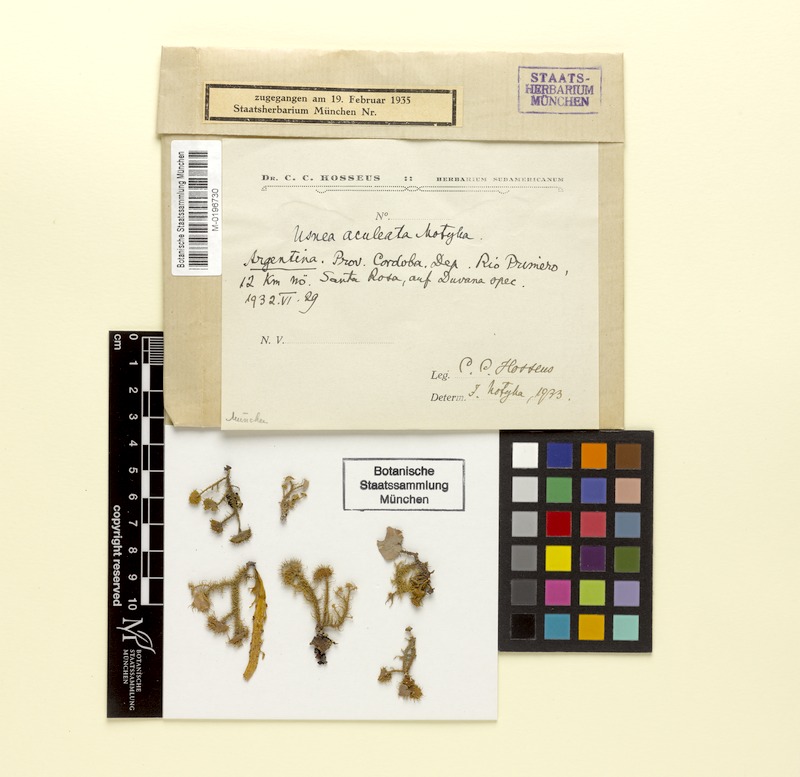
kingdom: Fungi
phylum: Ascomycota
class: Lecanoromycetes
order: Lecanorales
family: Parmeliaceae
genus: Usnea
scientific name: Usnea aculeata
